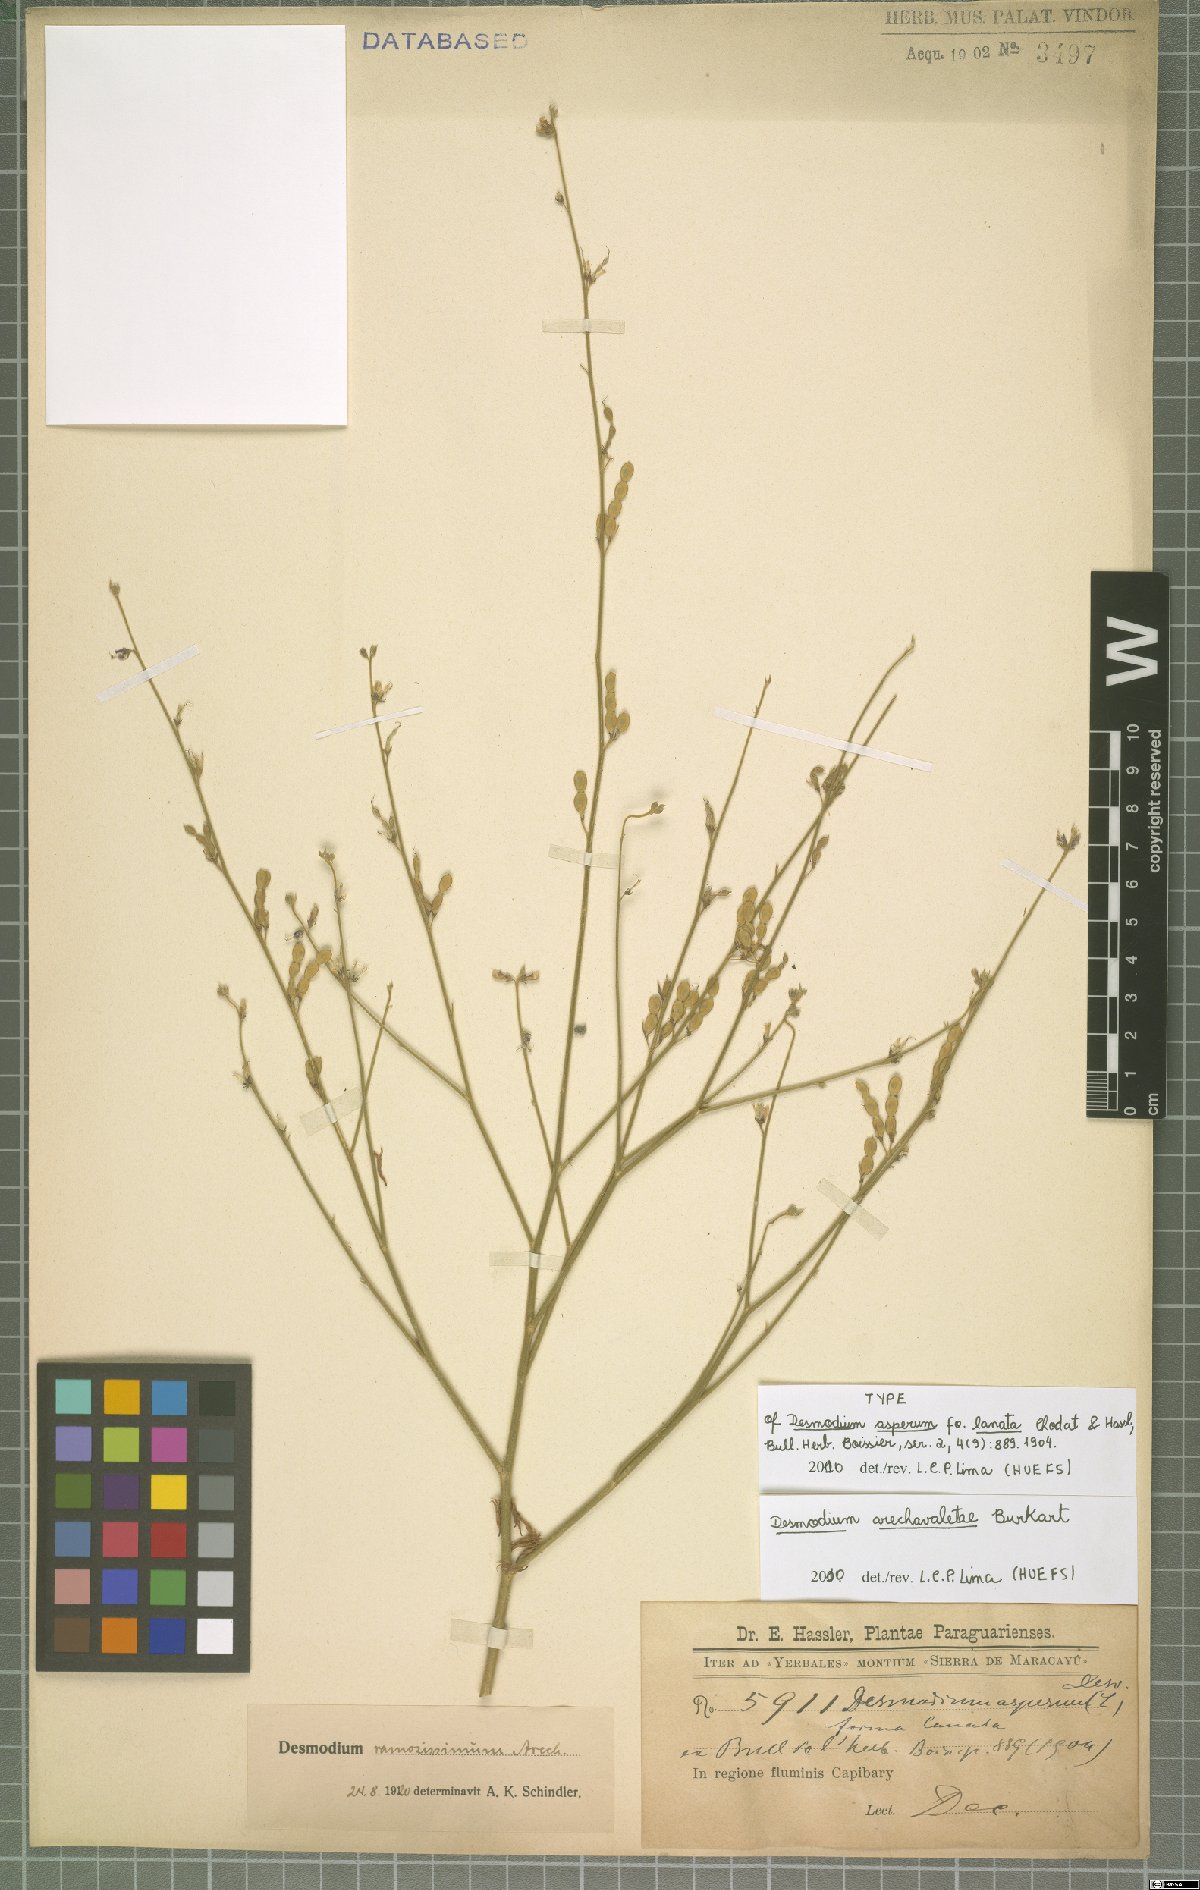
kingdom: Plantae
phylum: Tracheophyta
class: Magnoliopsida
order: Fabales
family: Fabaceae
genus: Desmodium
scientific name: Desmodium arechavaletae
